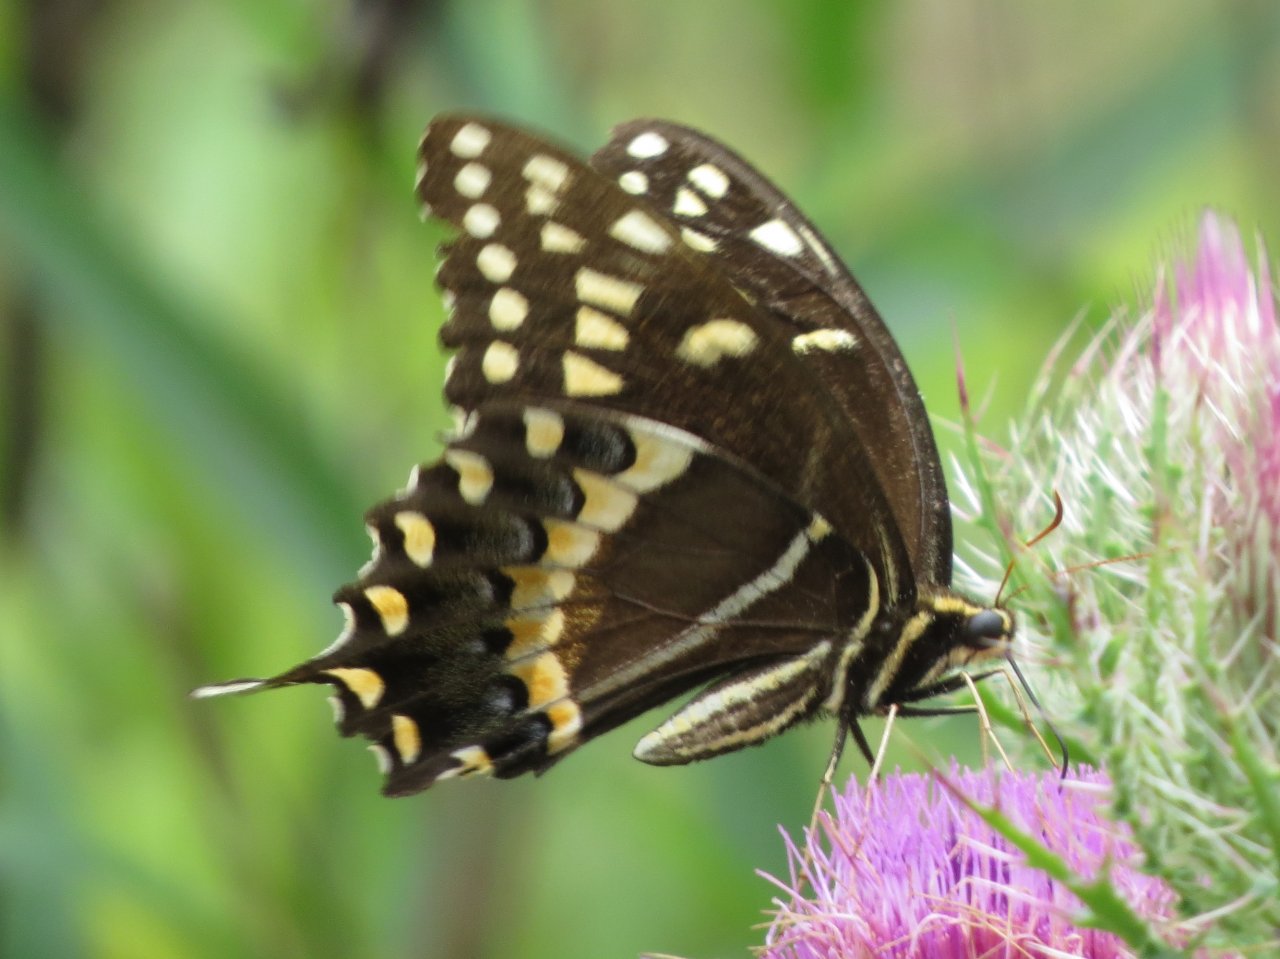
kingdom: Animalia
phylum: Arthropoda
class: Insecta
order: Lepidoptera
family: Papilionidae
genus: Pterourus
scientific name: Pterourus palamedes
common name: Palamedes Swallowtail
